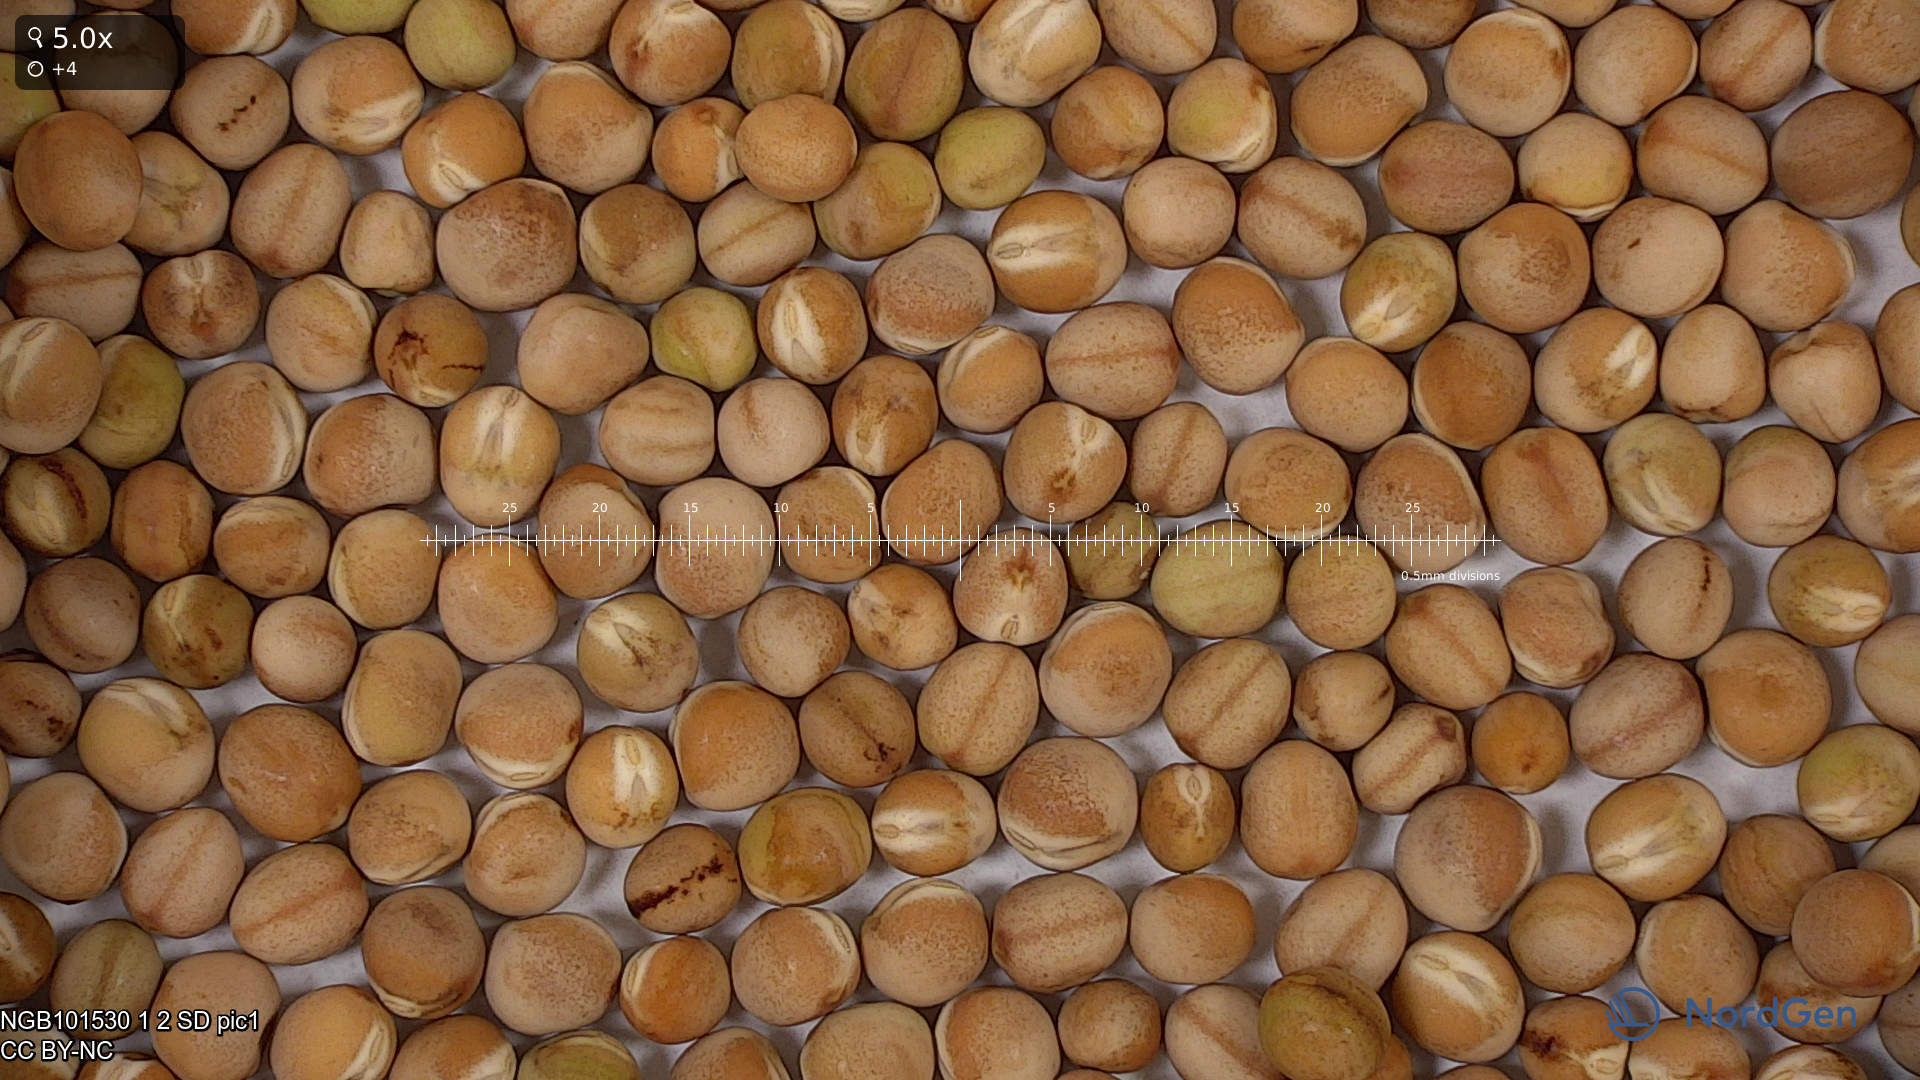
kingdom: Plantae
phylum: Tracheophyta
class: Magnoliopsida
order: Fabales
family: Fabaceae
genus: Lathyrus
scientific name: Lathyrus oleraceus
